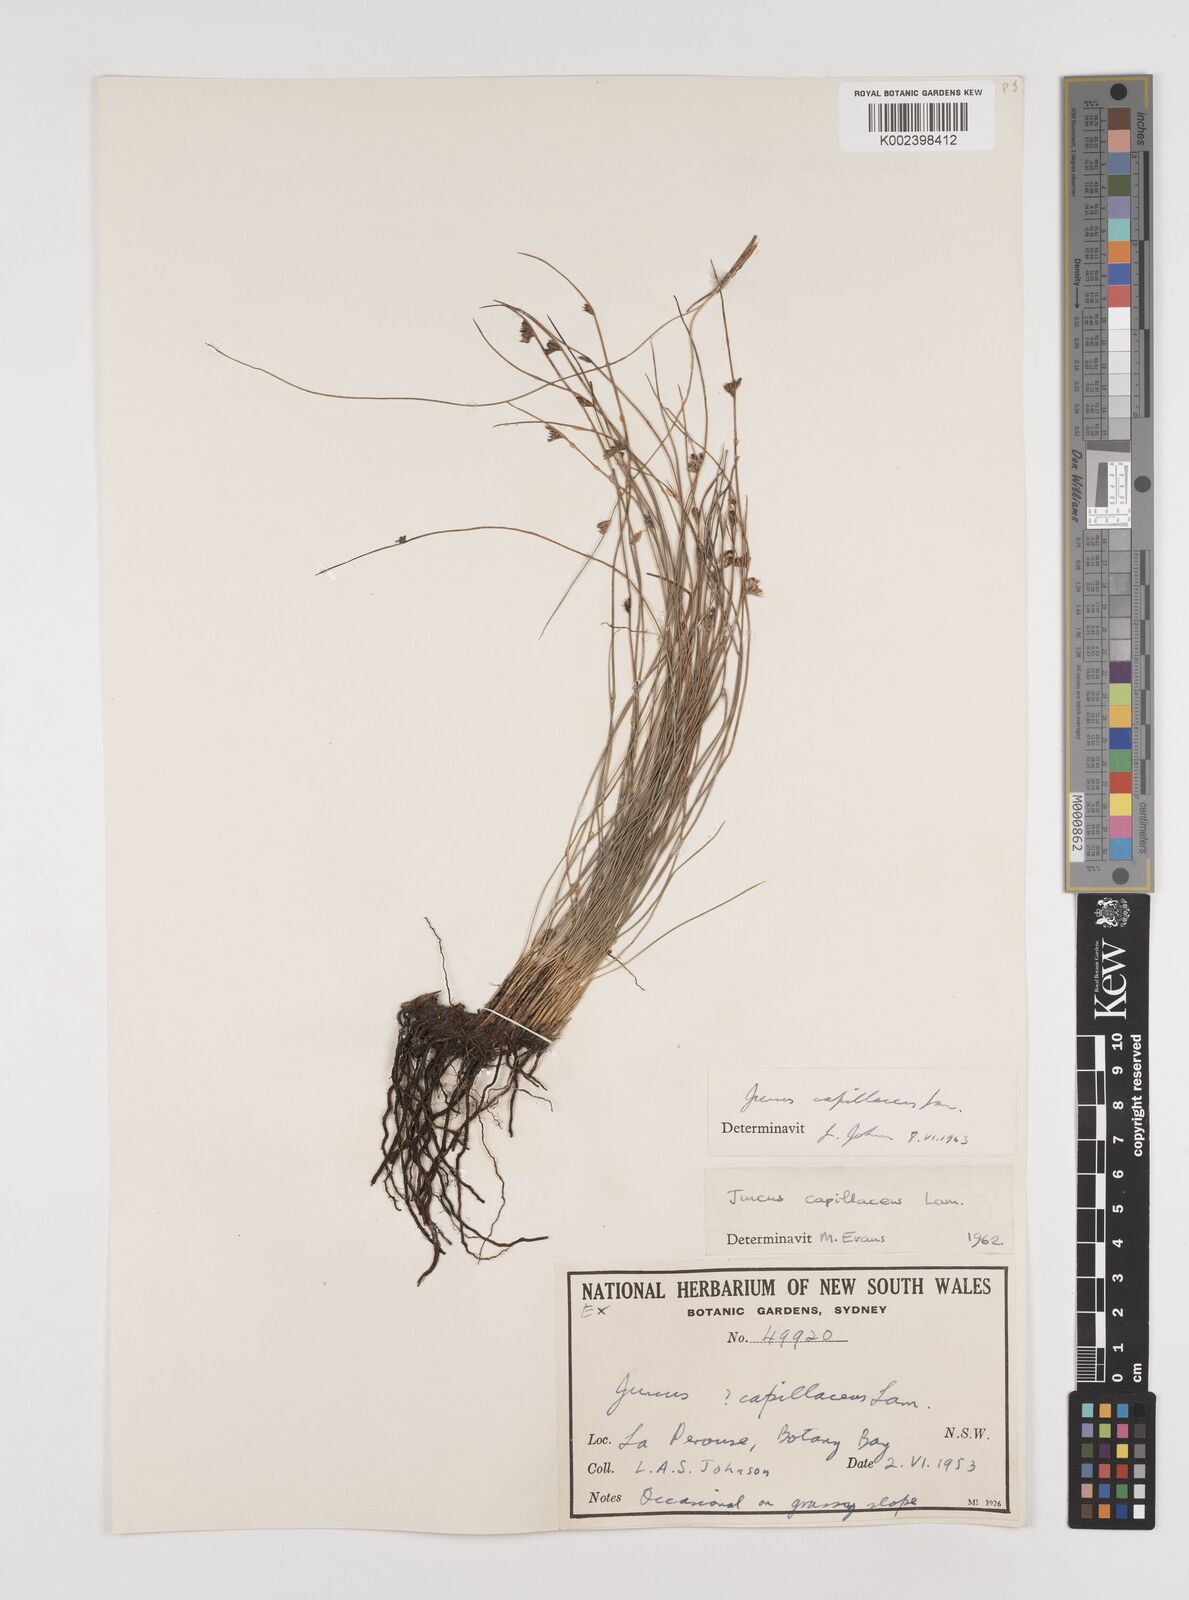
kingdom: Plantae
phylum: Tracheophyta
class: Liliopsida
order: Poales
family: Juncaceae
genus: Juncus
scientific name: Juncus capillaceus
